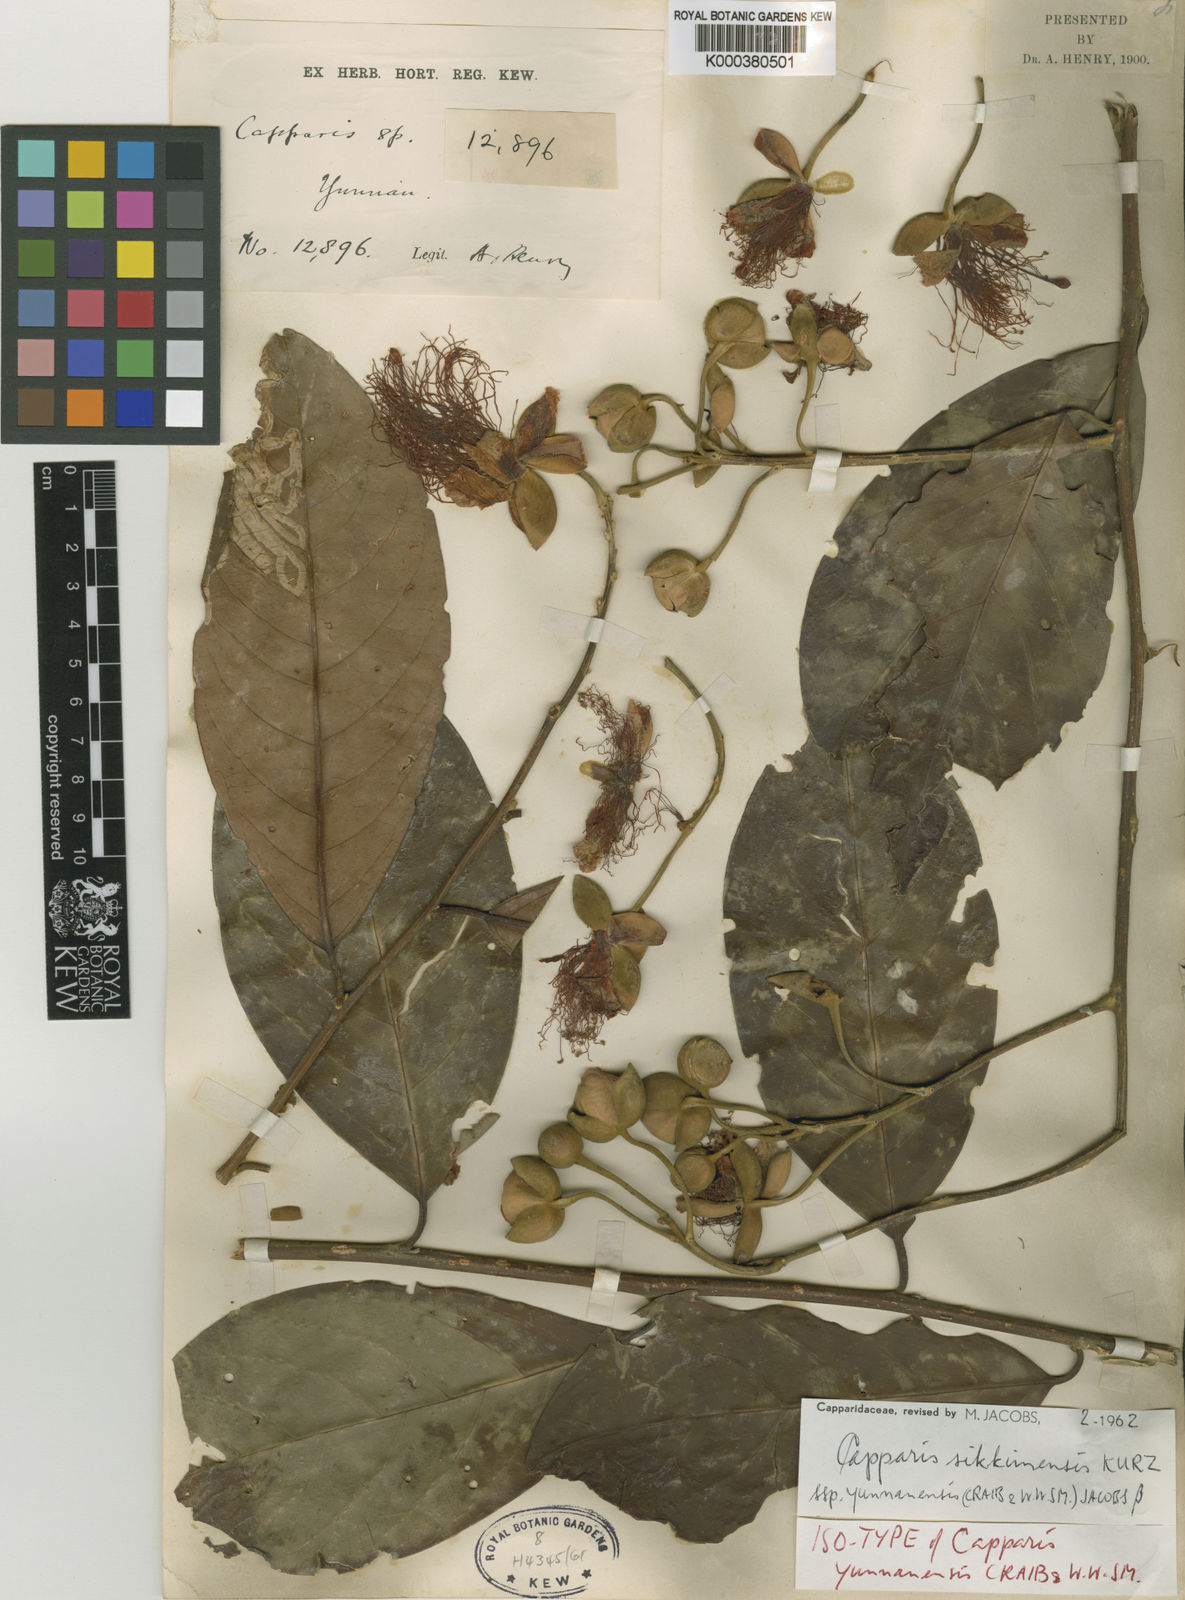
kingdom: Plantae
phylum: Tracheophyta
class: Magnoliopsida
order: Brassicales
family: Capparaceae
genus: Capparis
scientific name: Capparis yunnanensis
